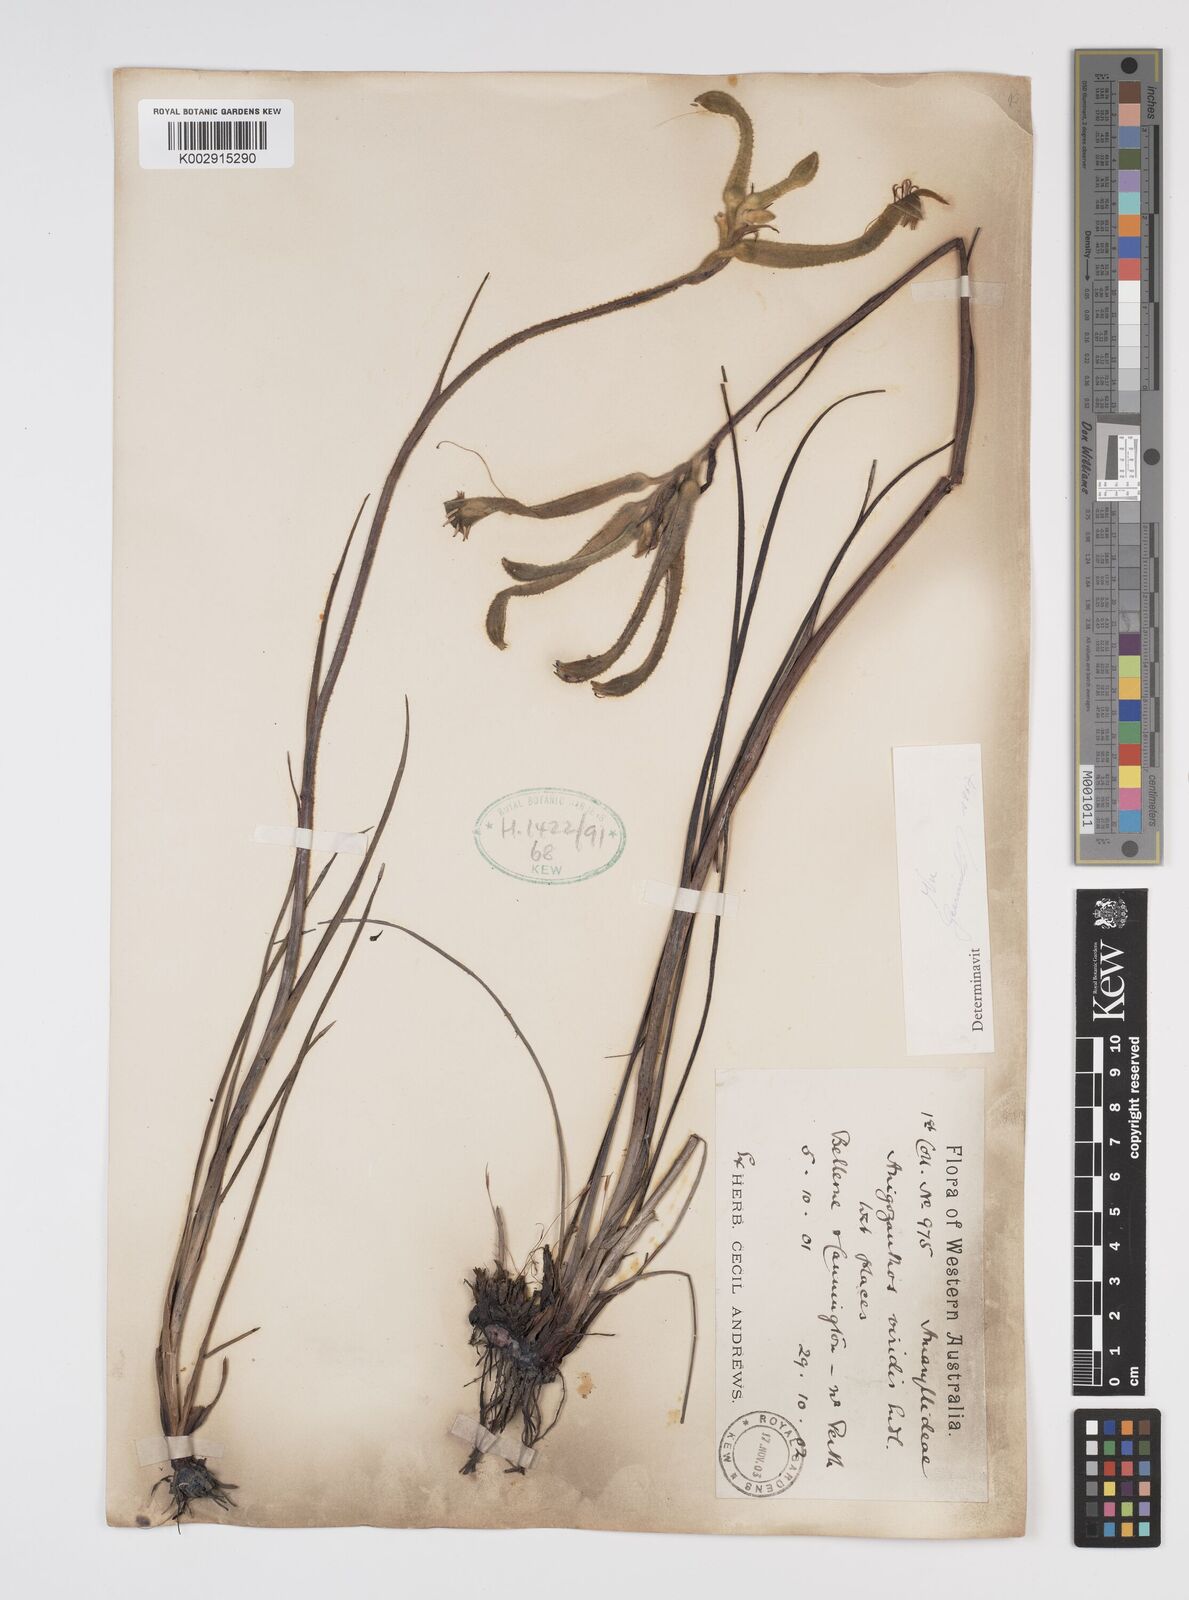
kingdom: Plantae
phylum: Tracheophyta
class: Liliopsida
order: Commelinales
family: Haemodoraceae
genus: Anigozanthos
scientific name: Anigozanthos viridis
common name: Green kangaroo-paw
